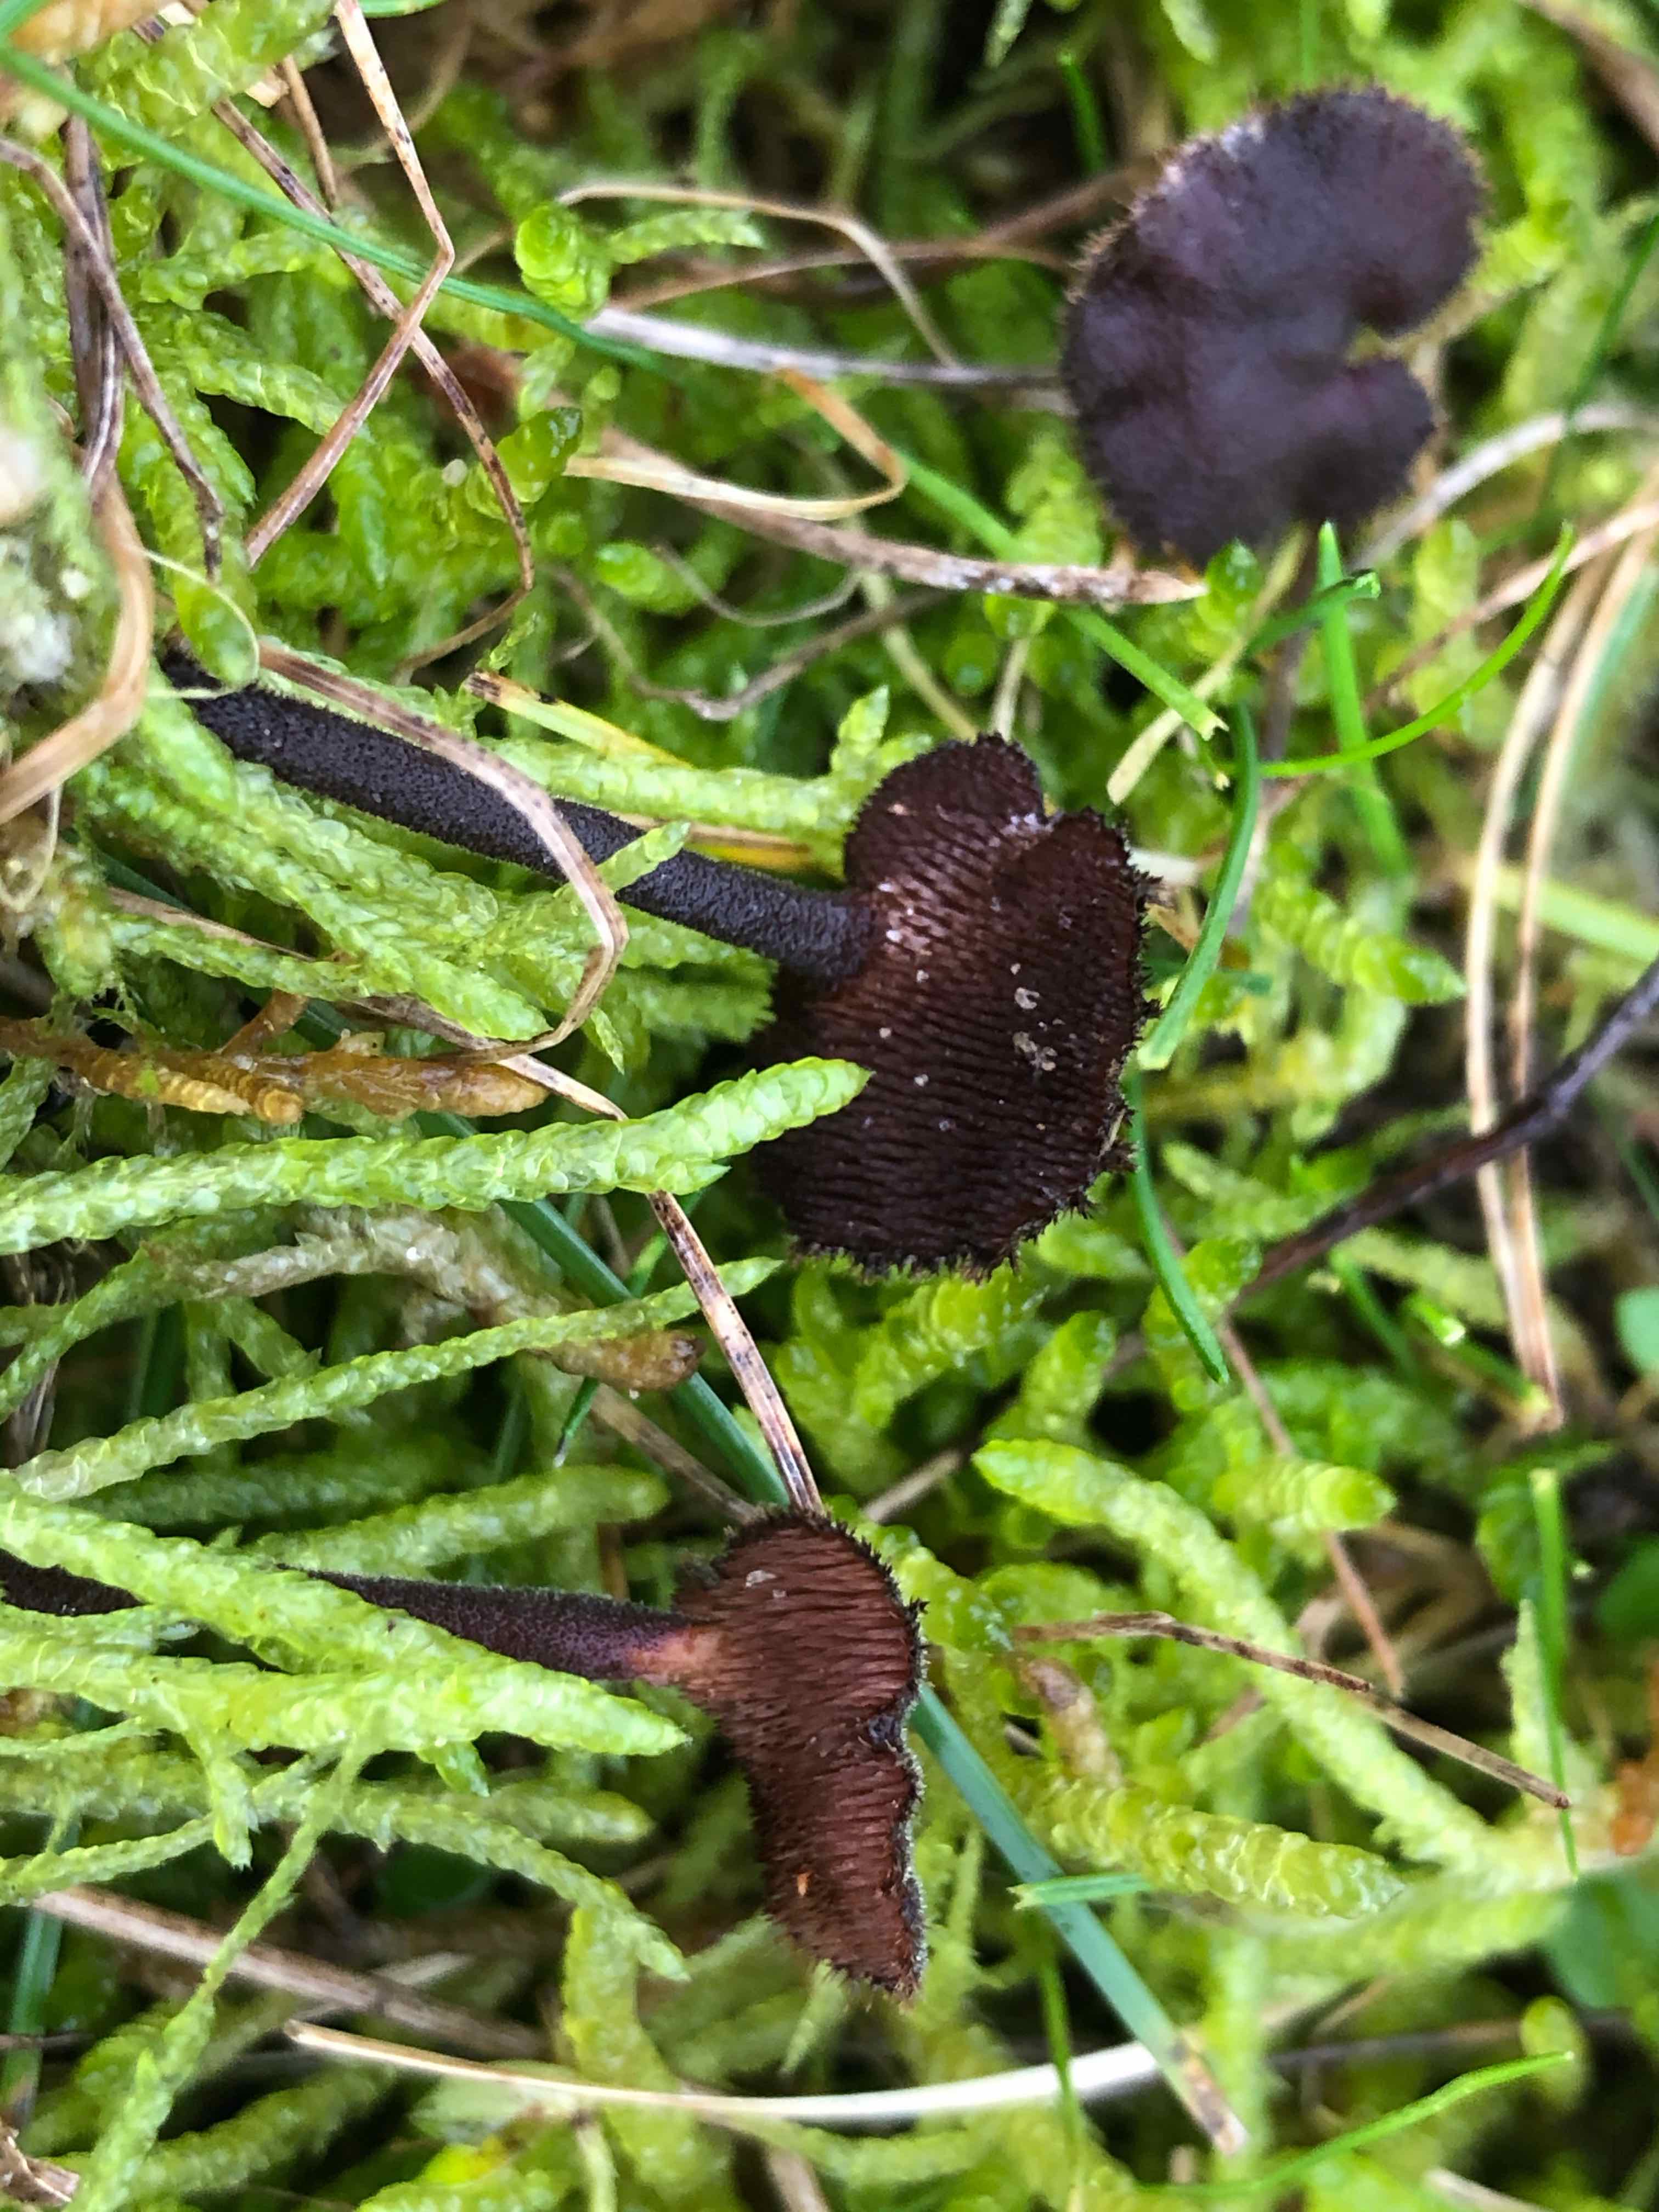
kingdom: Fungi
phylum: Basidiomycota
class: Agaricomycetes
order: Russulales
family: Auriscalpiaceae
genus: Auriscalpium
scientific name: Auriscalpium vulgare
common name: koglepigsvamp
